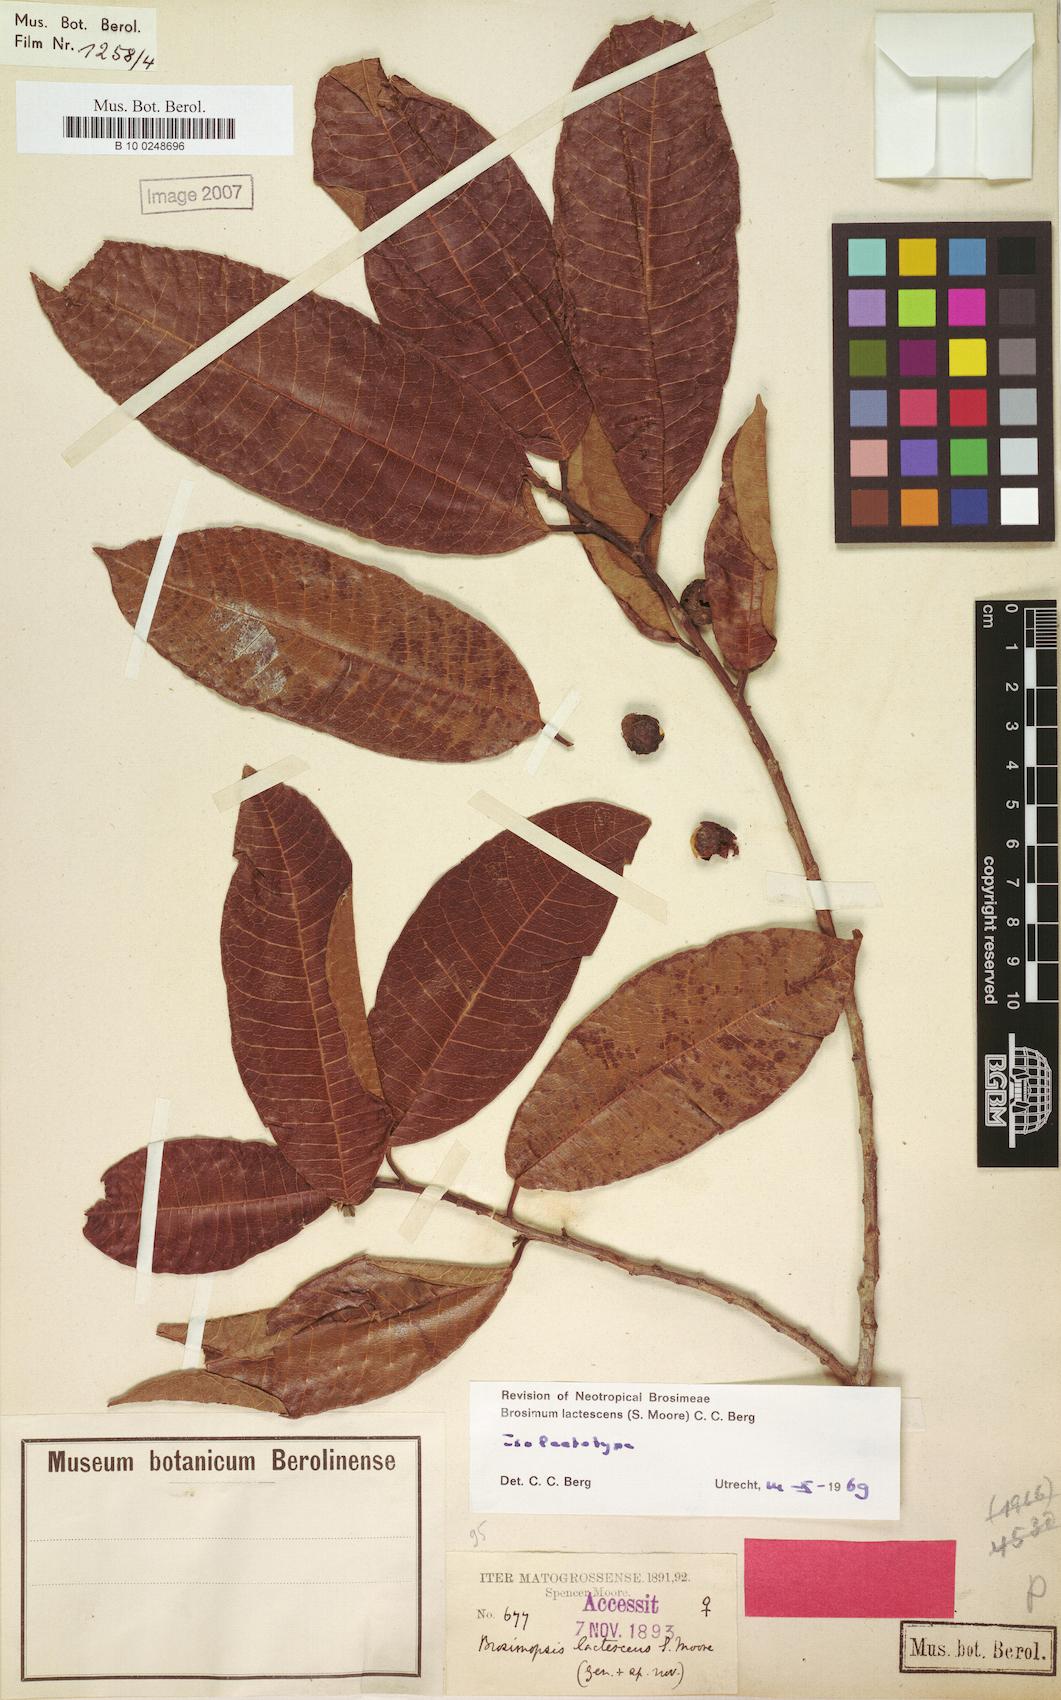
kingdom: Plantae
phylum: Tracheophyta
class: Magnoliopsida
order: Rosales
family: Moraceae
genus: Brosimum
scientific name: Brosimum lactescens
